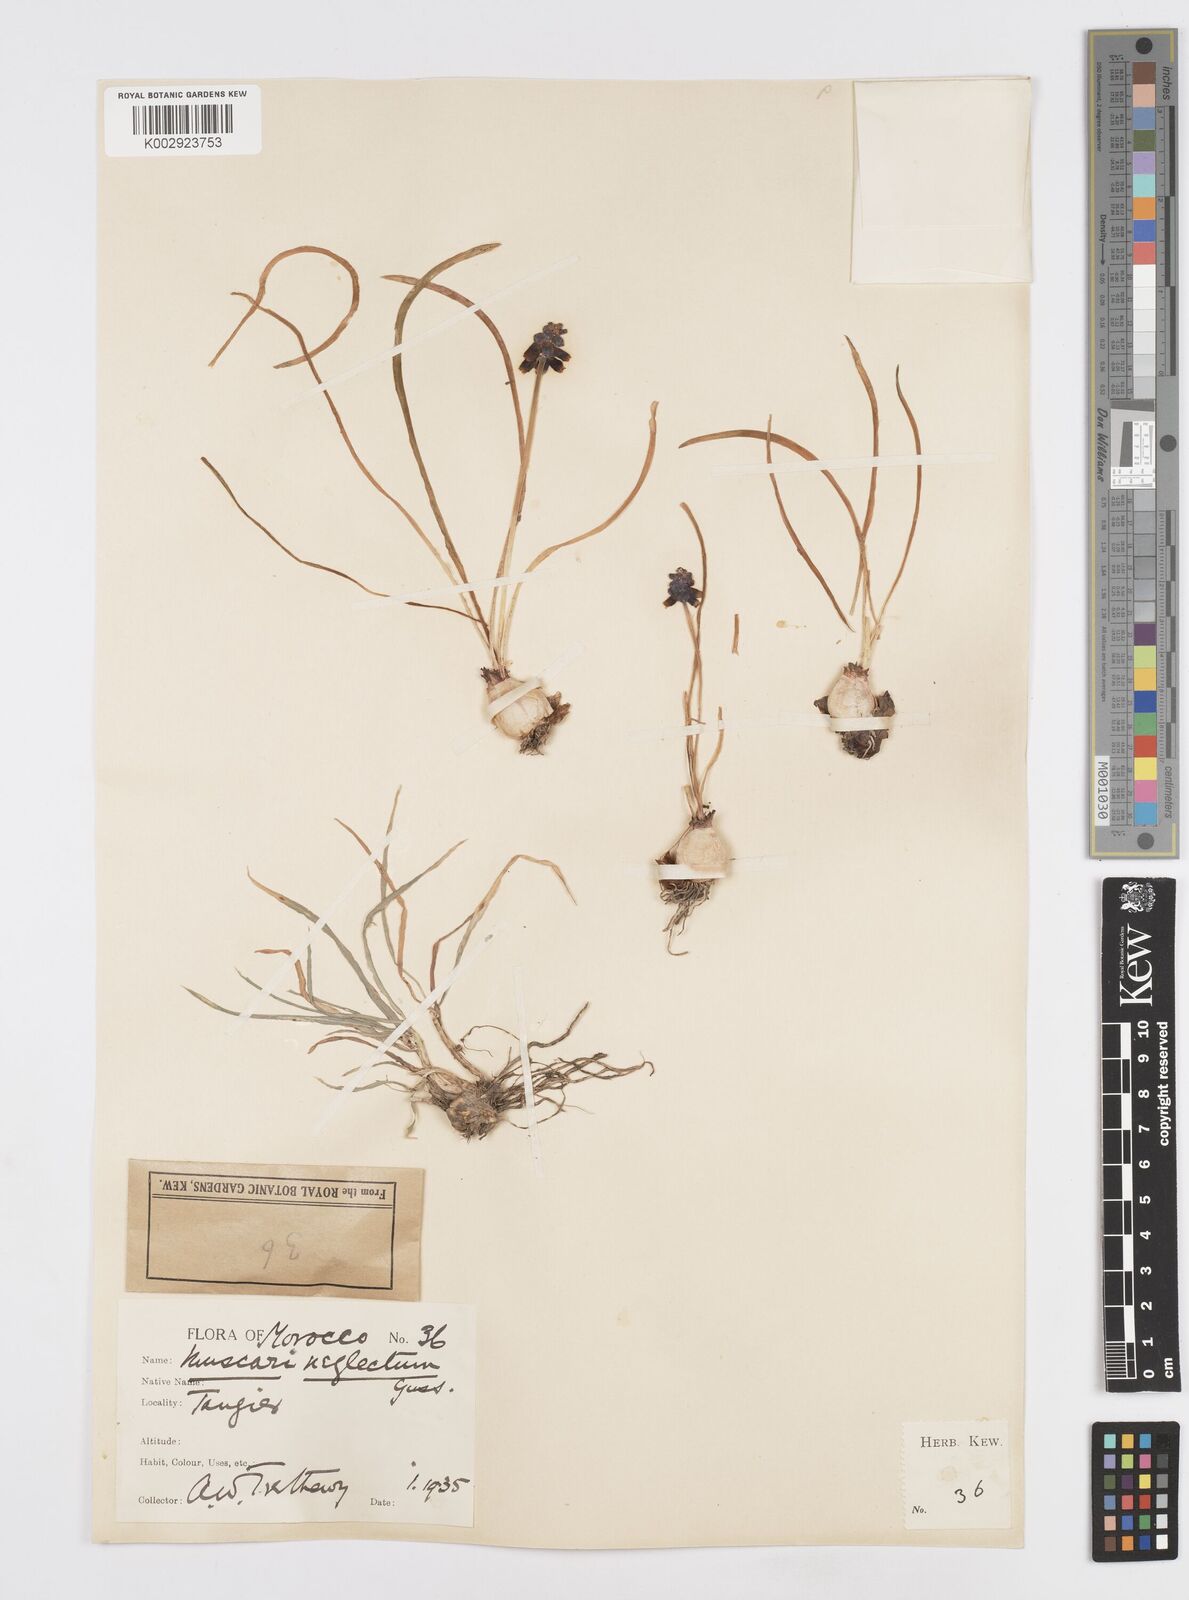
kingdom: Plantae
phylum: Tracheophyta
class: Liliopsida
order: Asparagales
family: Asparagaceae
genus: Muscari
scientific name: Muscari neglectum
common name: Grape-hyacinth
